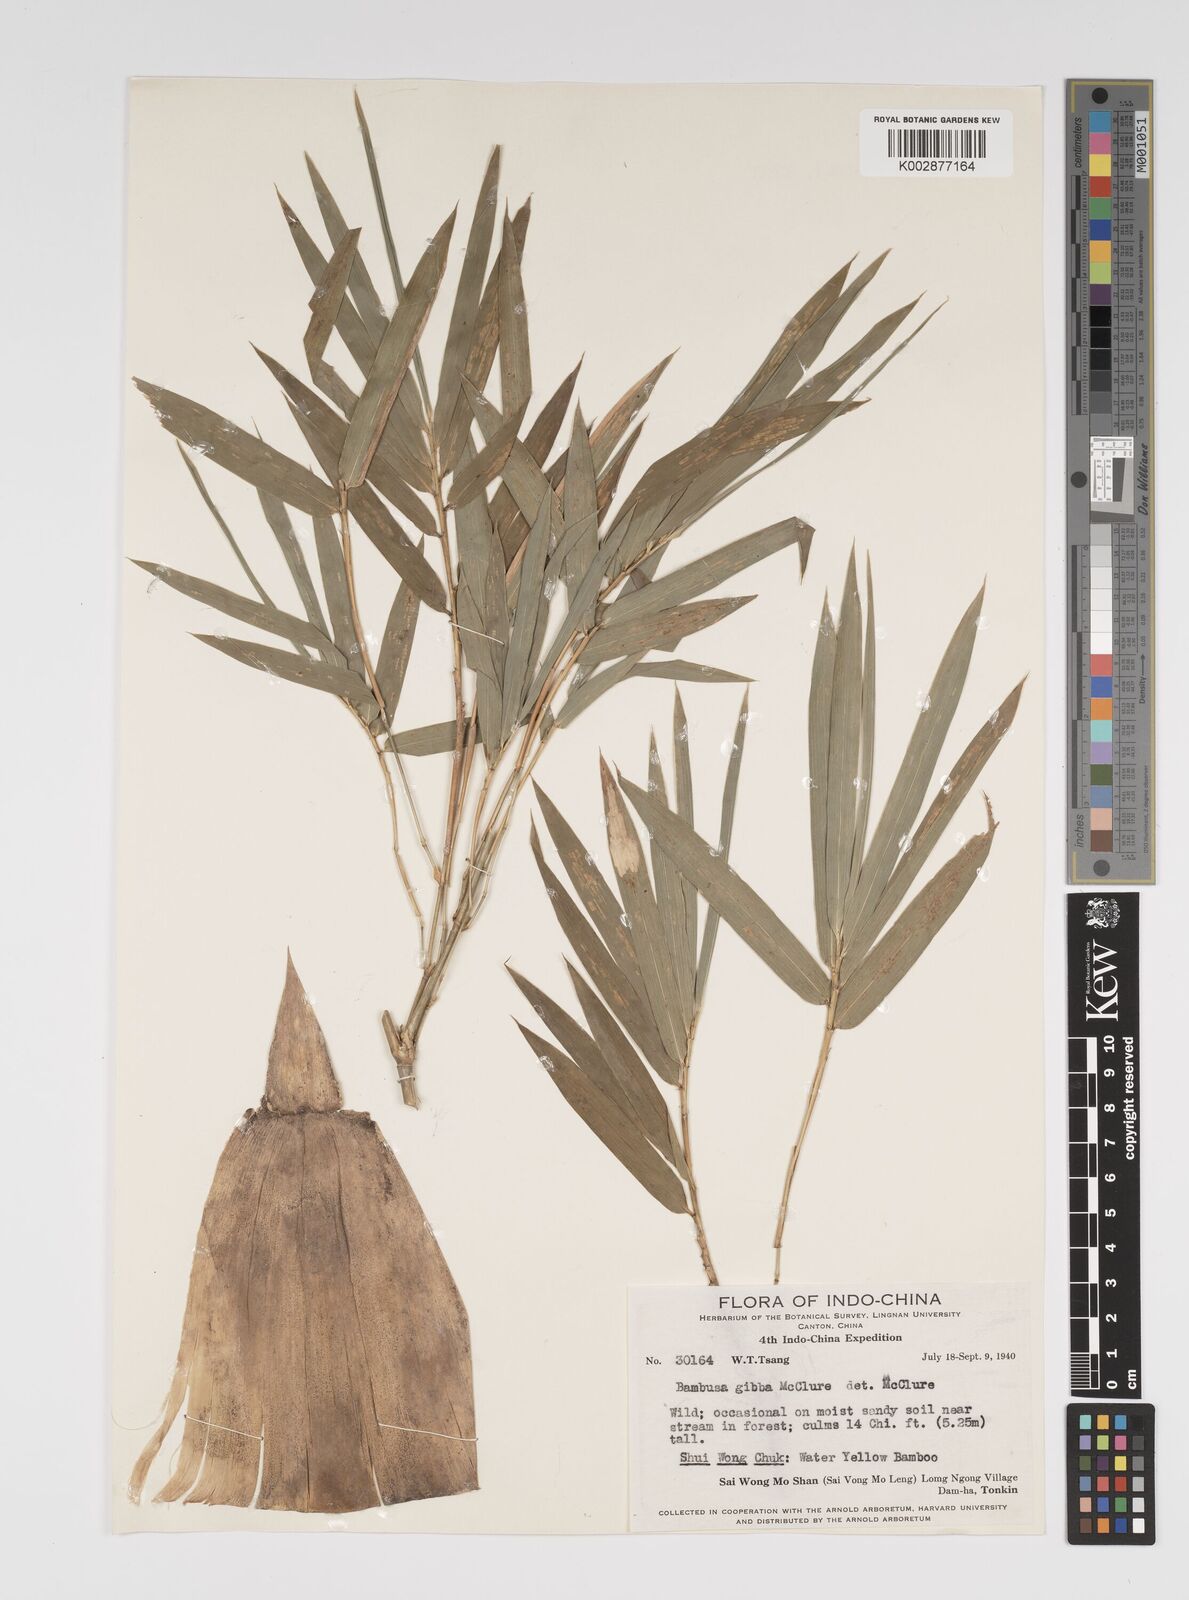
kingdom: Plantae
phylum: Tracheophyta
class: Liliopsida
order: Poales
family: Poaceae
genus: Bambusa
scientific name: Bambusa gibba
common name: Nai bamboo
